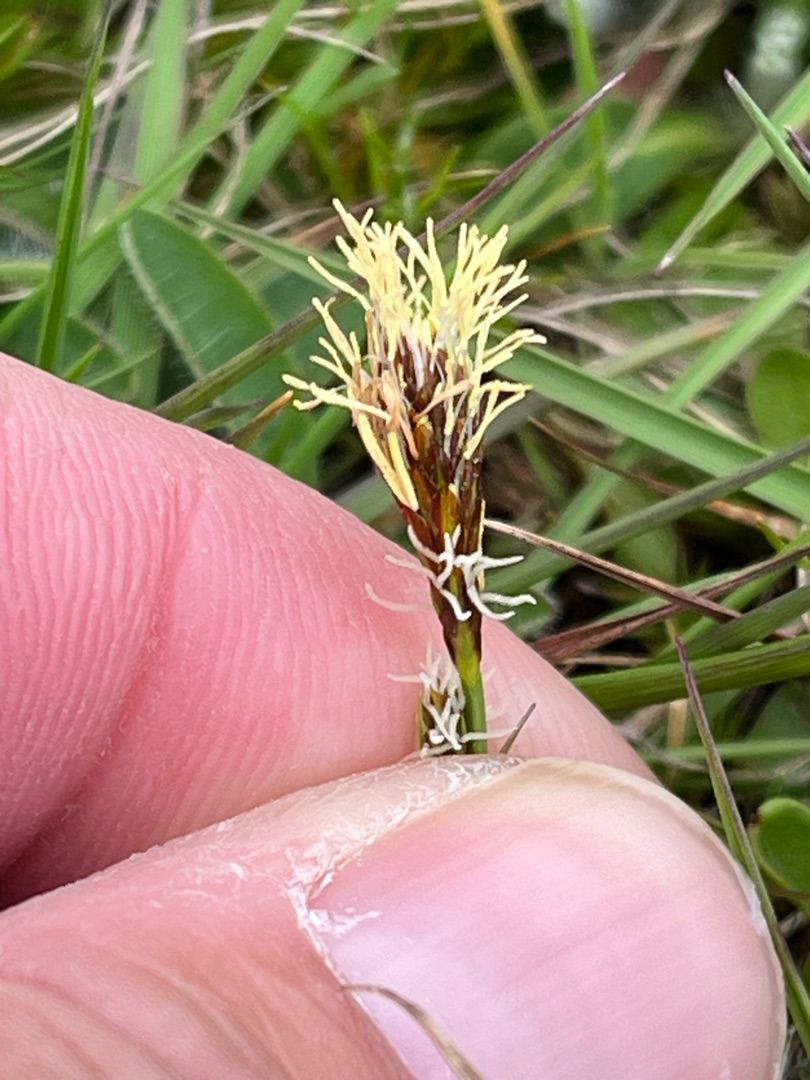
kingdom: Plantae
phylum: Tracheophyta
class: Liliopsida
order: Poales
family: Cyperaceae
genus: Carex
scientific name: Carex caryophyllea
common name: Vår-star
